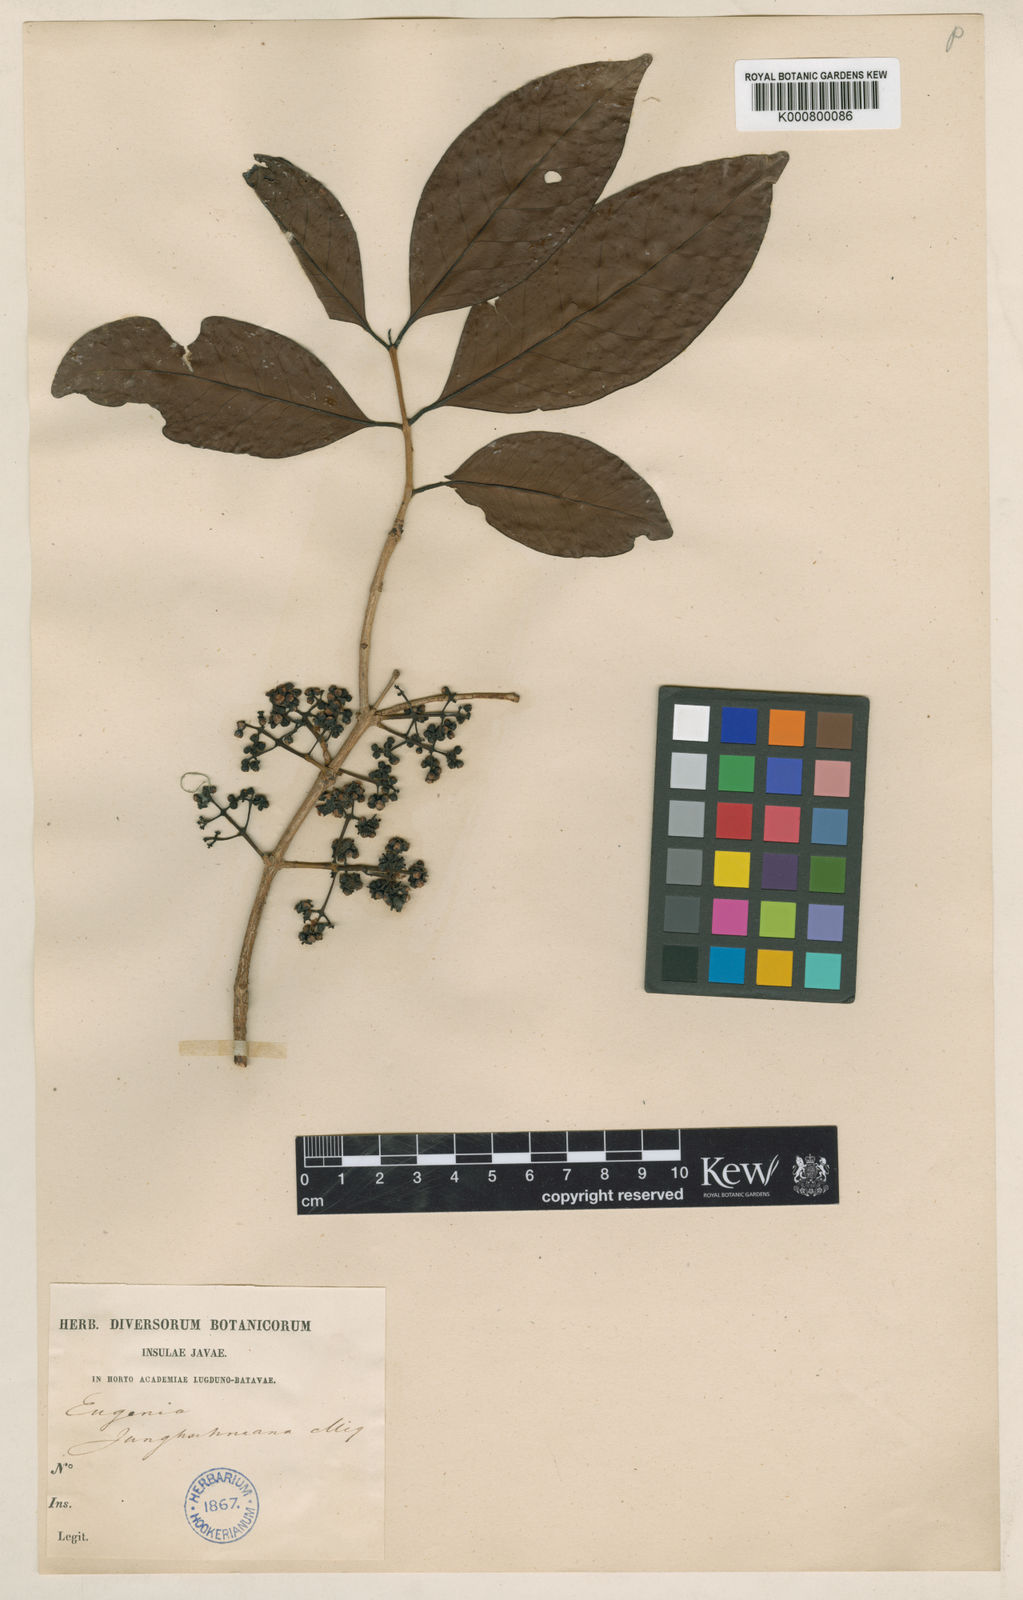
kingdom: Plantae
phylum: Tracheophyta
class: Magnoliopsida
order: Myrtales
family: Myrtaceae
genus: Syzygium
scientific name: Syzygium polyanthum
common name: Indonesian bayleaf
